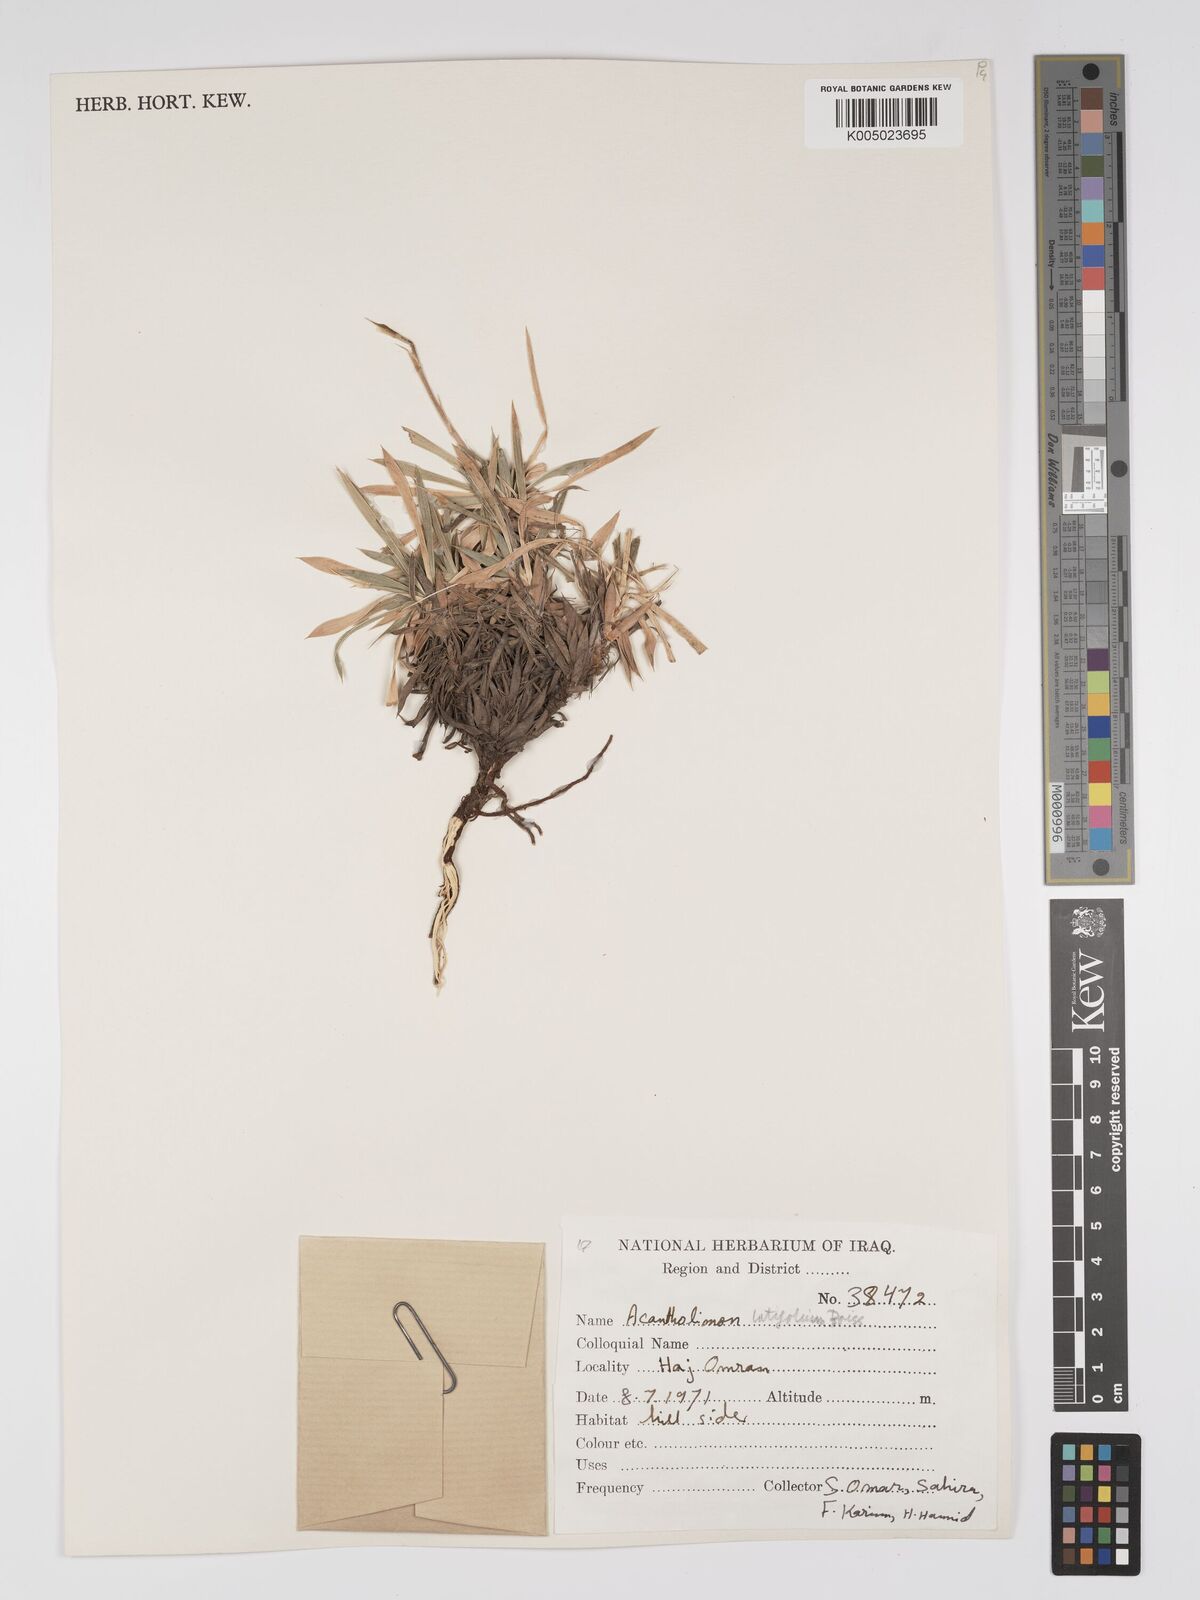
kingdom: Plantae
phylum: Tracheophyta
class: Magnoliopsida
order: Caryophyllales
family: Plumbaginaceae
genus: Acantholimon
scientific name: Acantholimon
